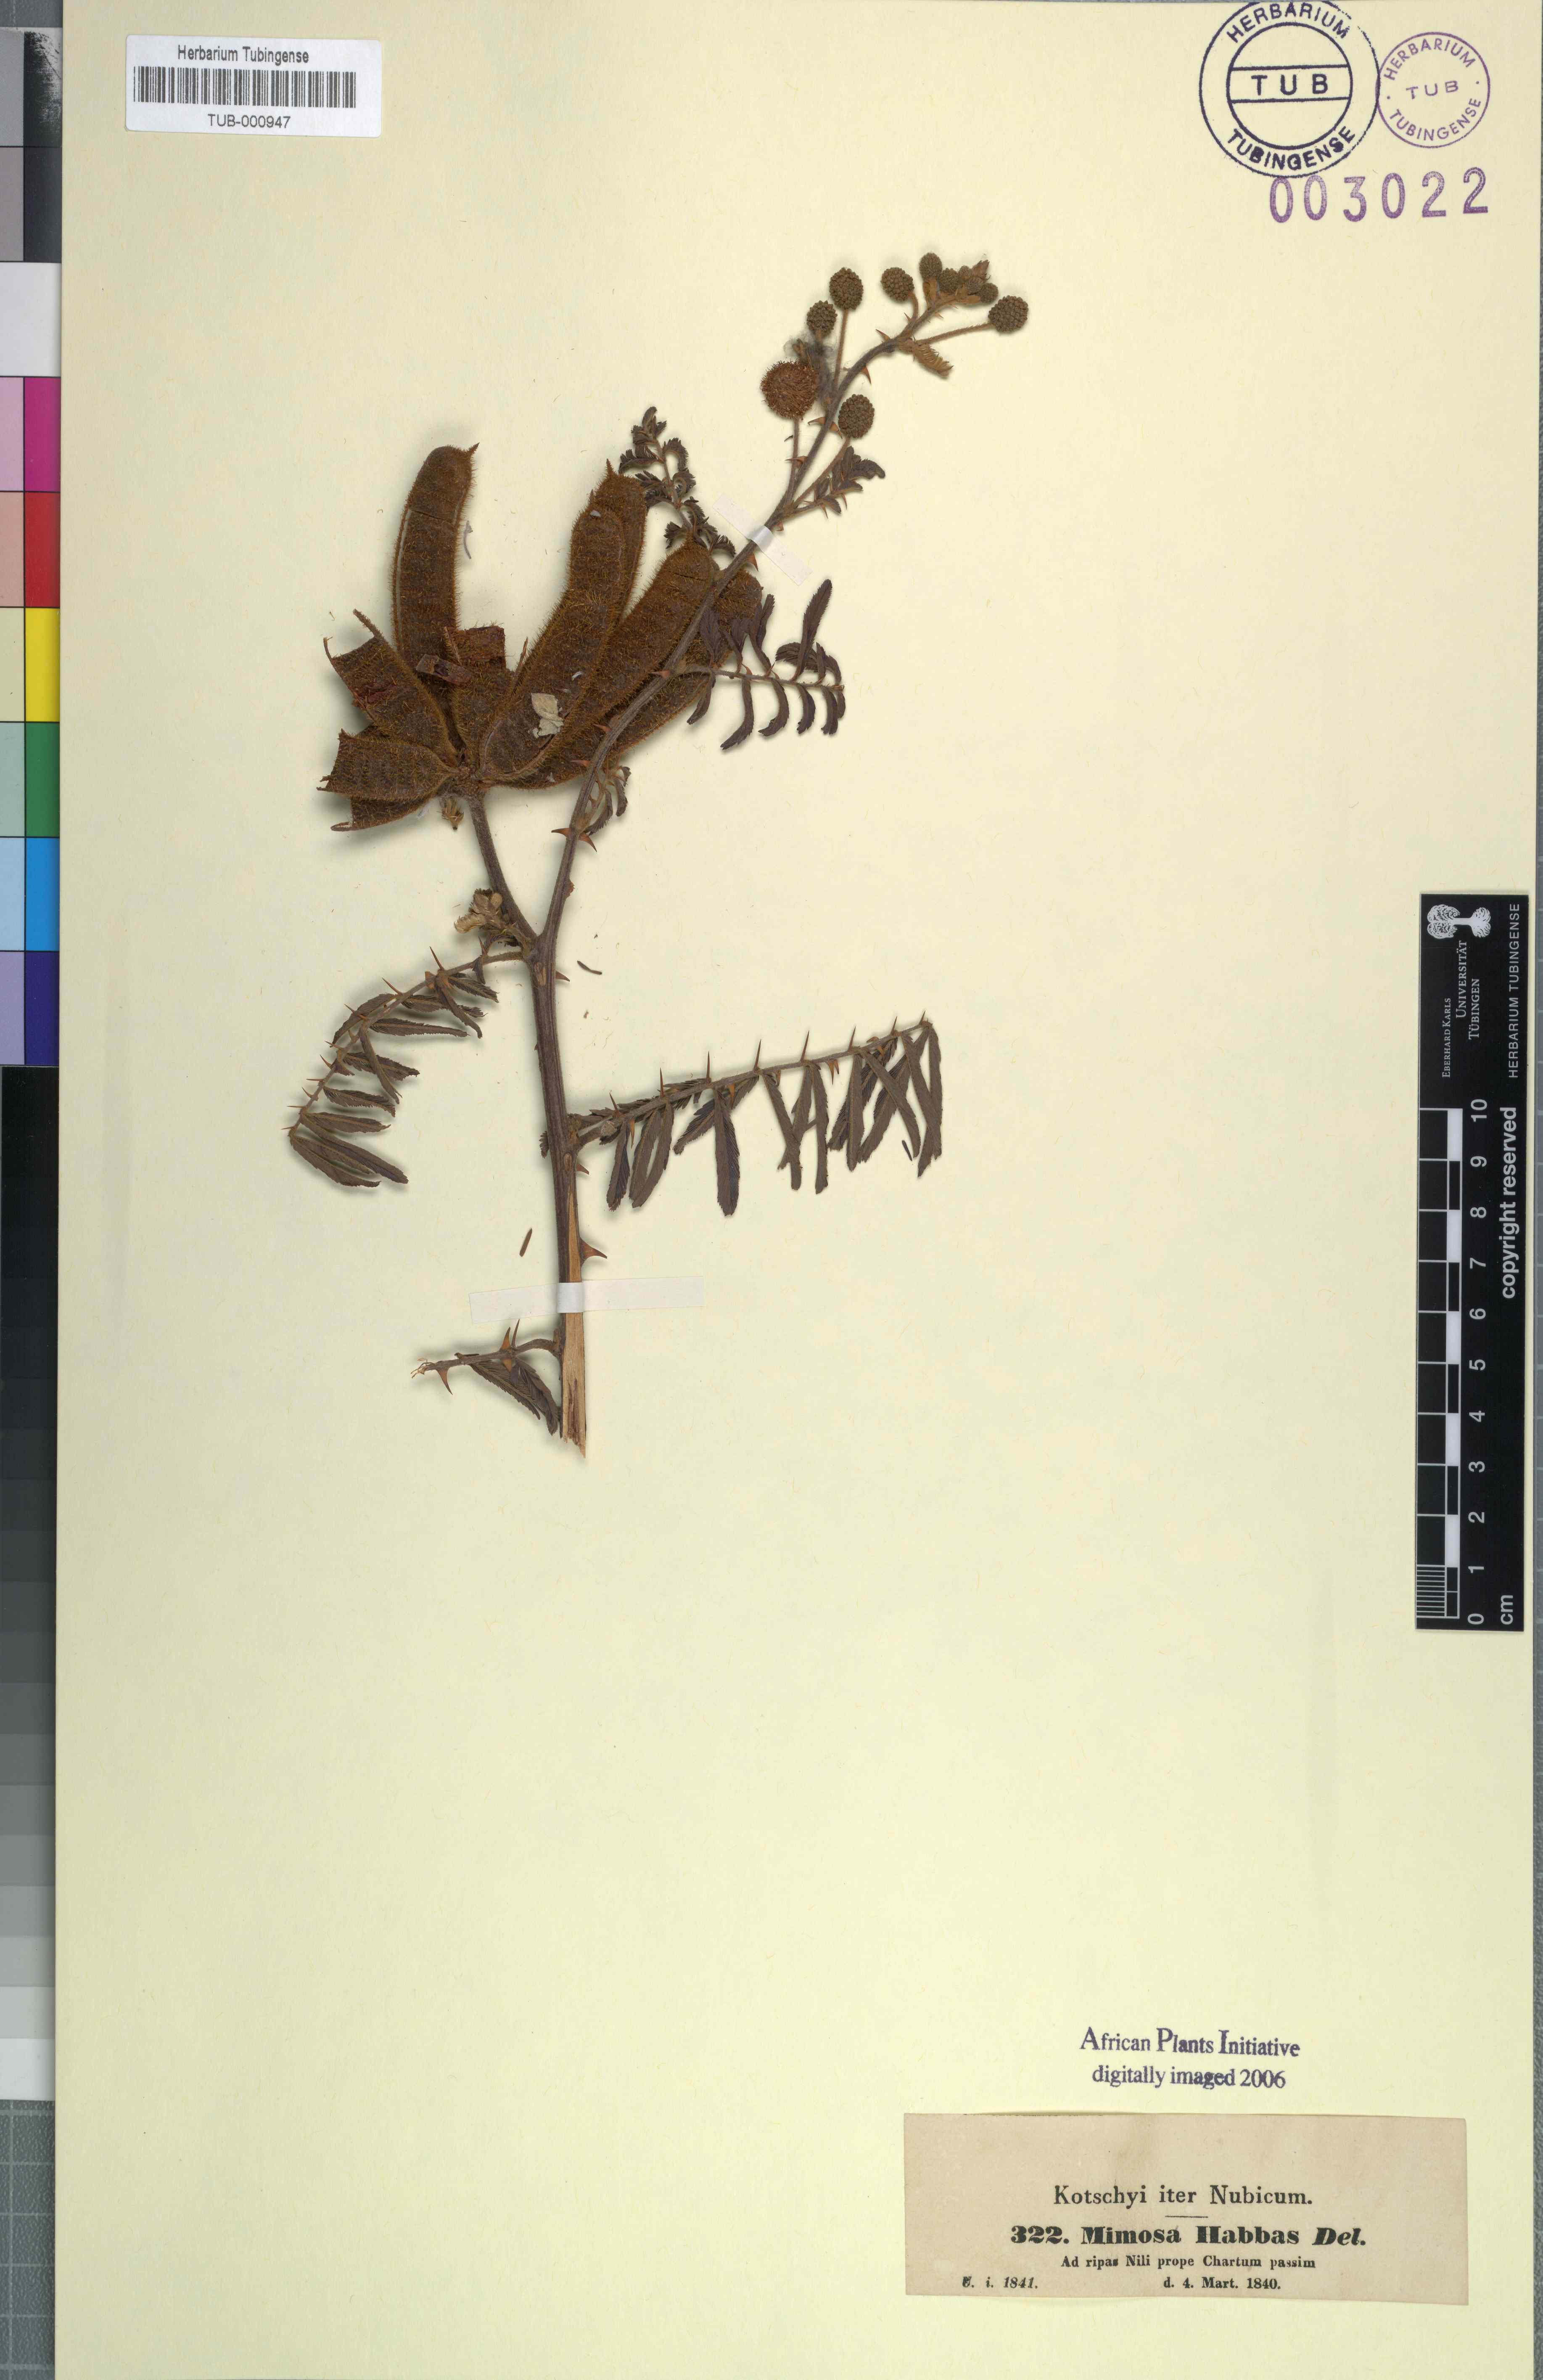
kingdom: Plantae
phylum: Tracheophyta
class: Magnoliopsida
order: Fabales
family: Fabaceae
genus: Mimosa
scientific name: Mimosa asperata
